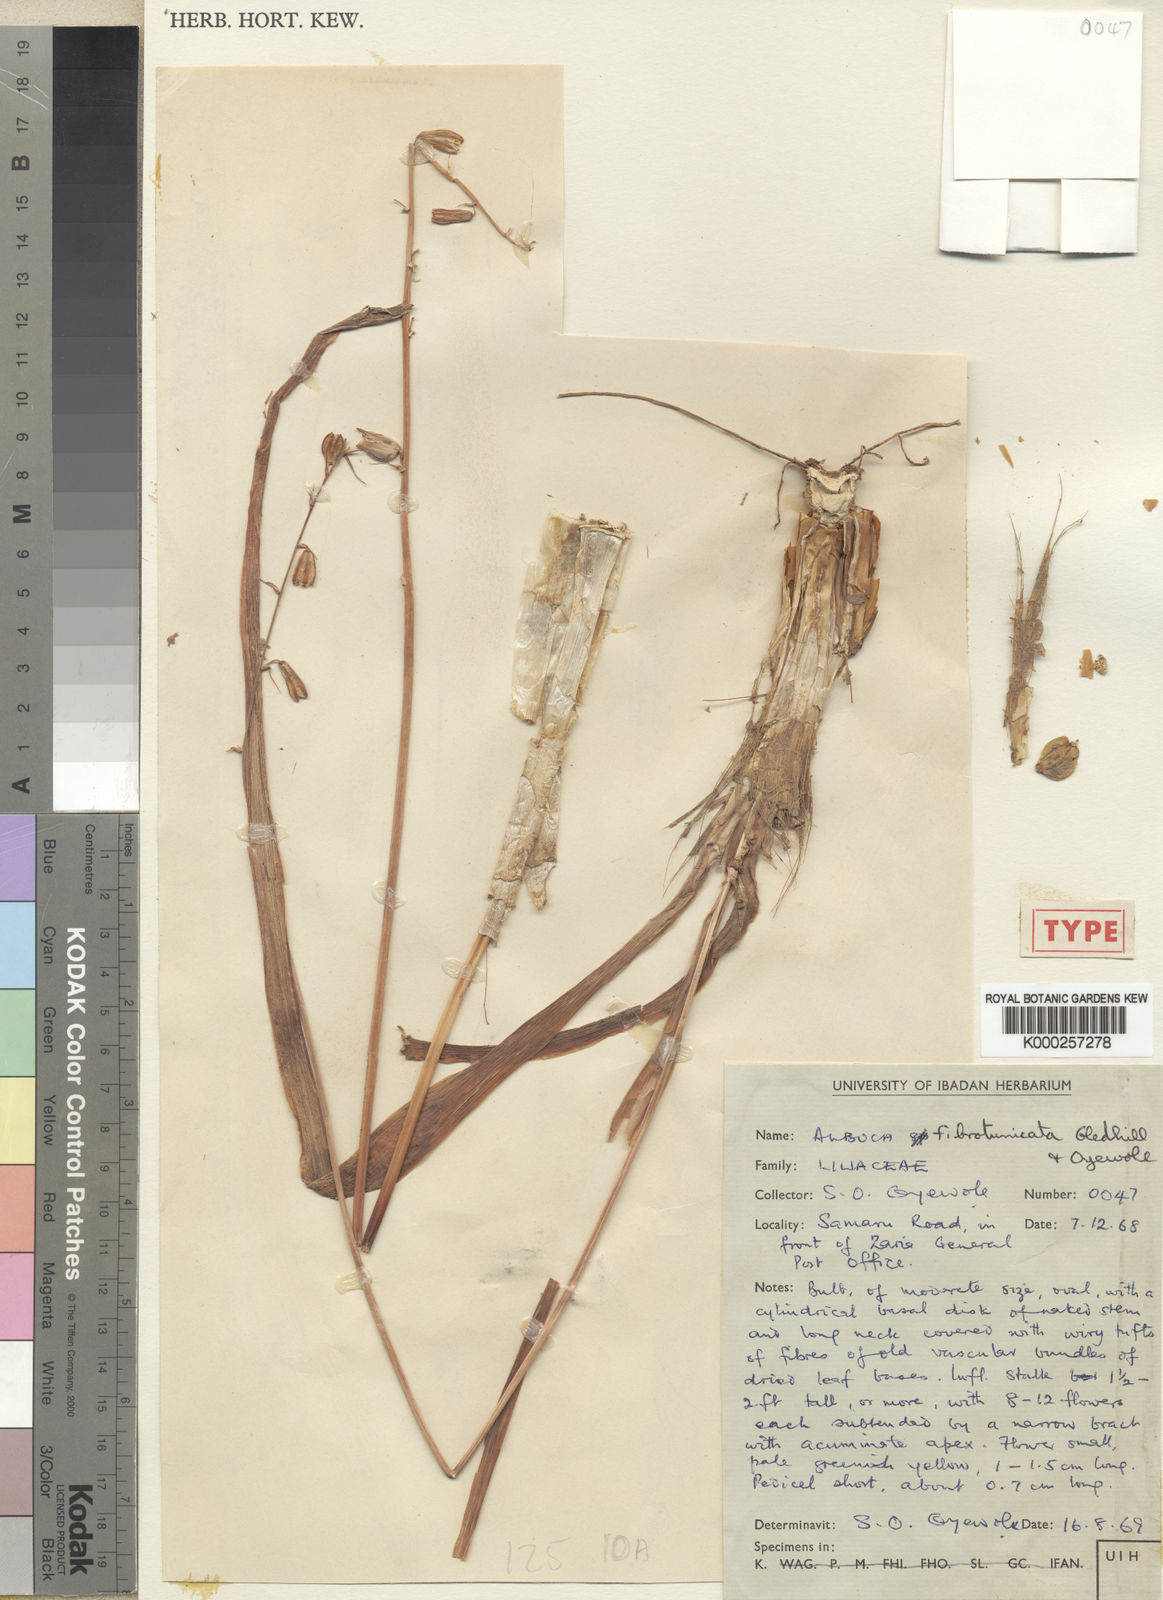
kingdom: Plantae
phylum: Tracheophyta
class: Liliopsida
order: Asparagales
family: Asparagaceae
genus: Albuca
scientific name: Albuca fibrotunicata
